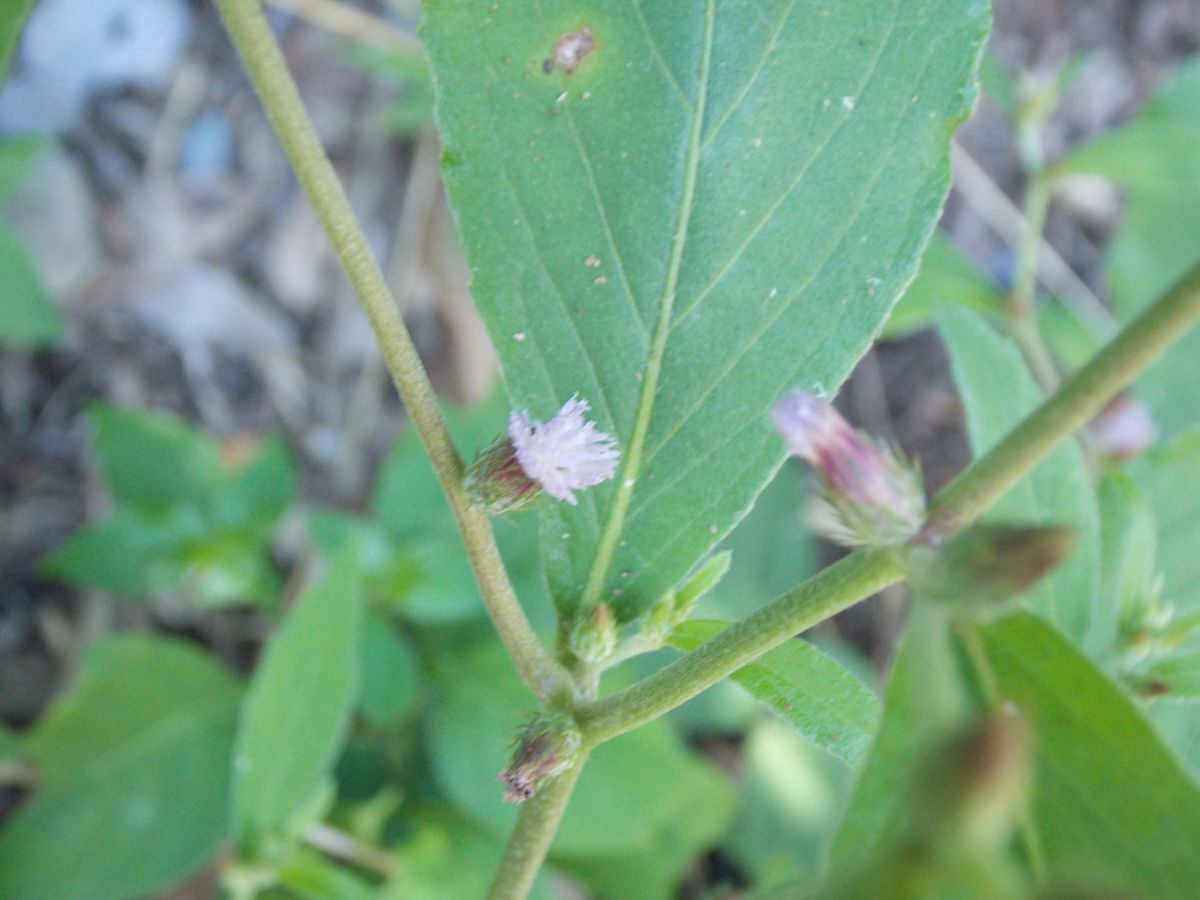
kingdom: Plantae
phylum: Tracheophyta
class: Magnoliopsida
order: Asterales
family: Asteraceae
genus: Lepidaploa
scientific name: Lepidaploa acilepis
